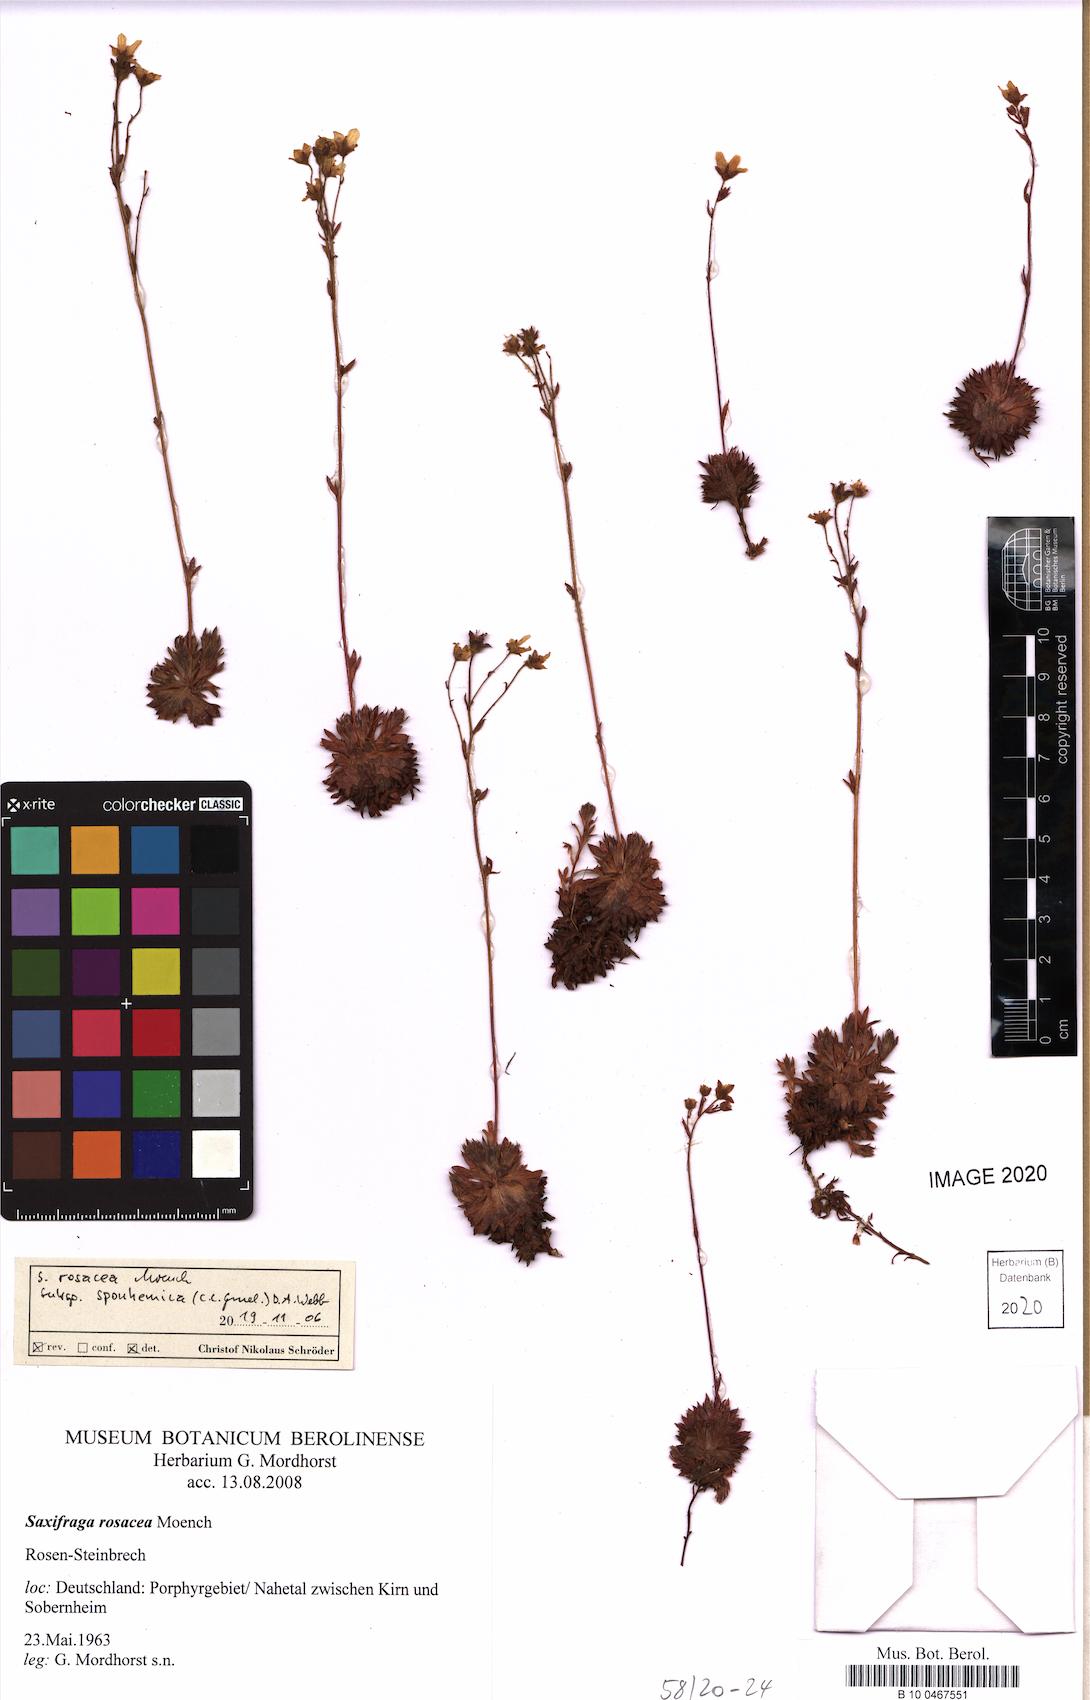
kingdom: Plantae
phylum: Tracheophyta
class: Magnoliopsida
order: Saxifragales
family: Saxifragaceae
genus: Saxifraga
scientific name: Saxifraga rosacea
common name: Irish saxifrage
